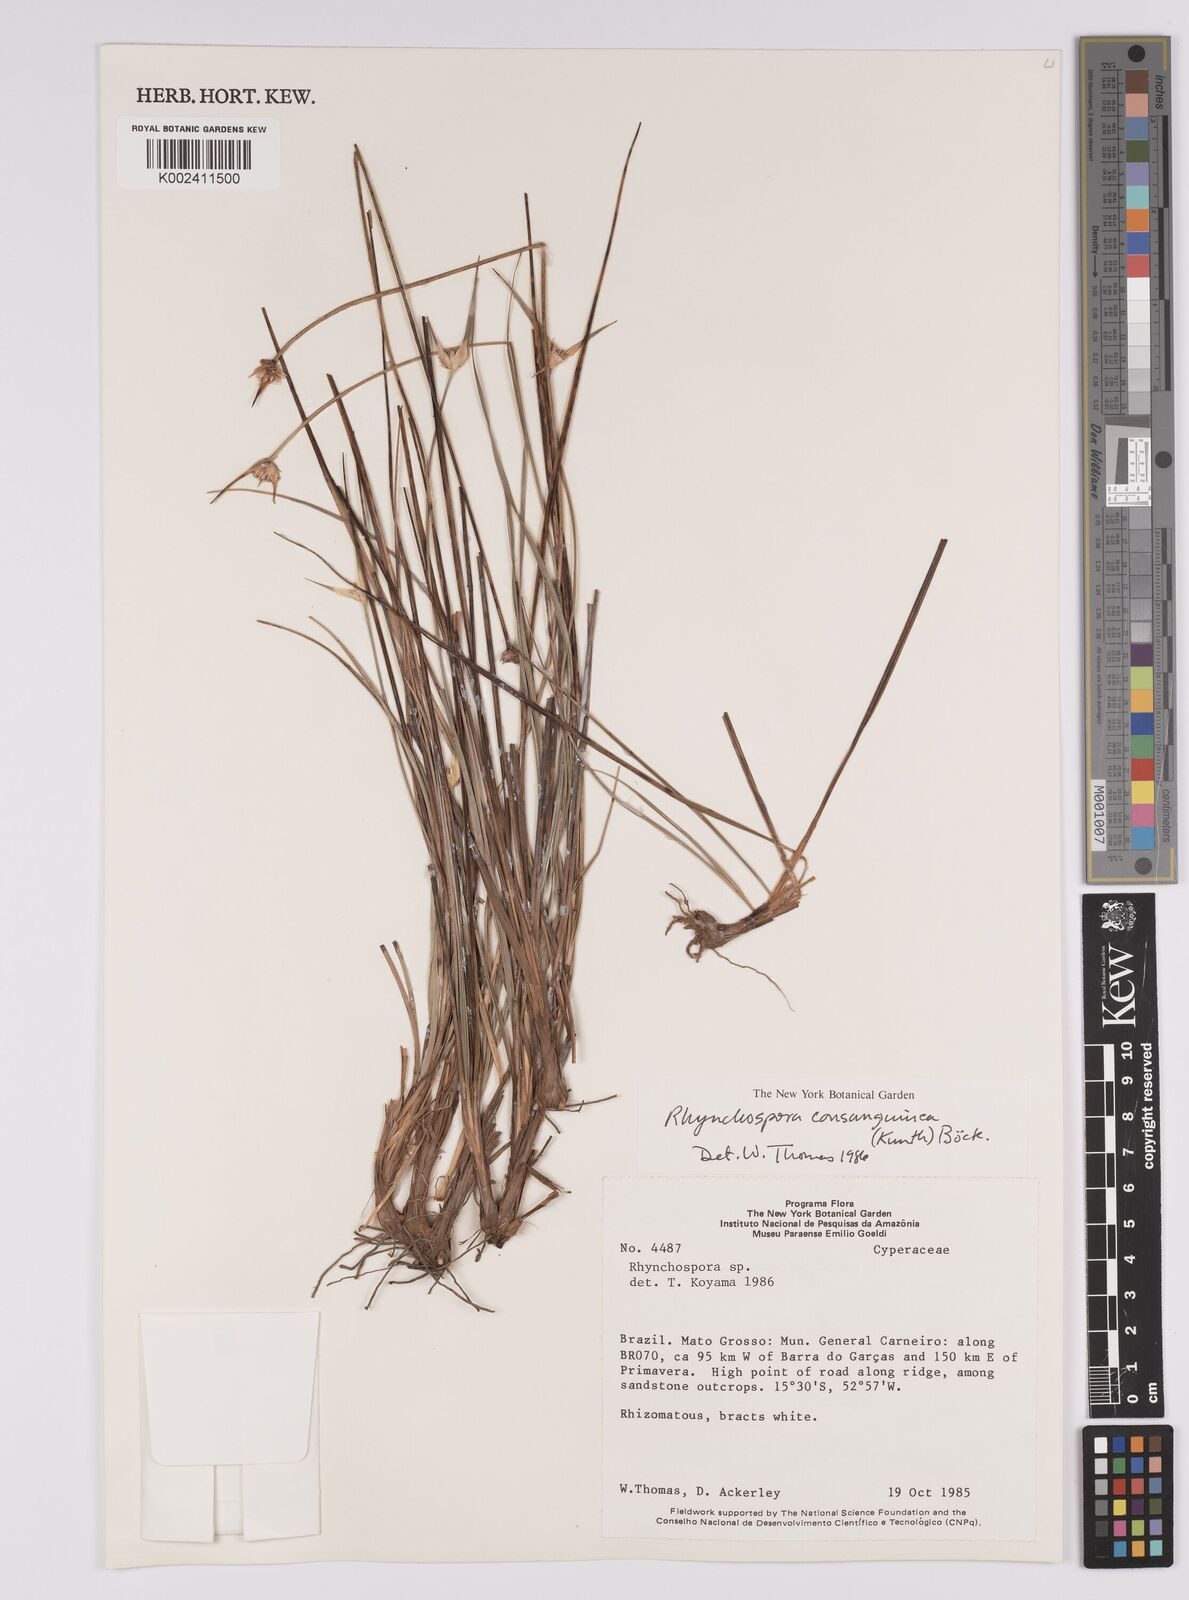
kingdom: Plantae
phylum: Tracheophyta
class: Liliopsida
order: Poales
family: Cyperaceae
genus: Rhynchospora
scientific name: Rhynchospora consanguinea
